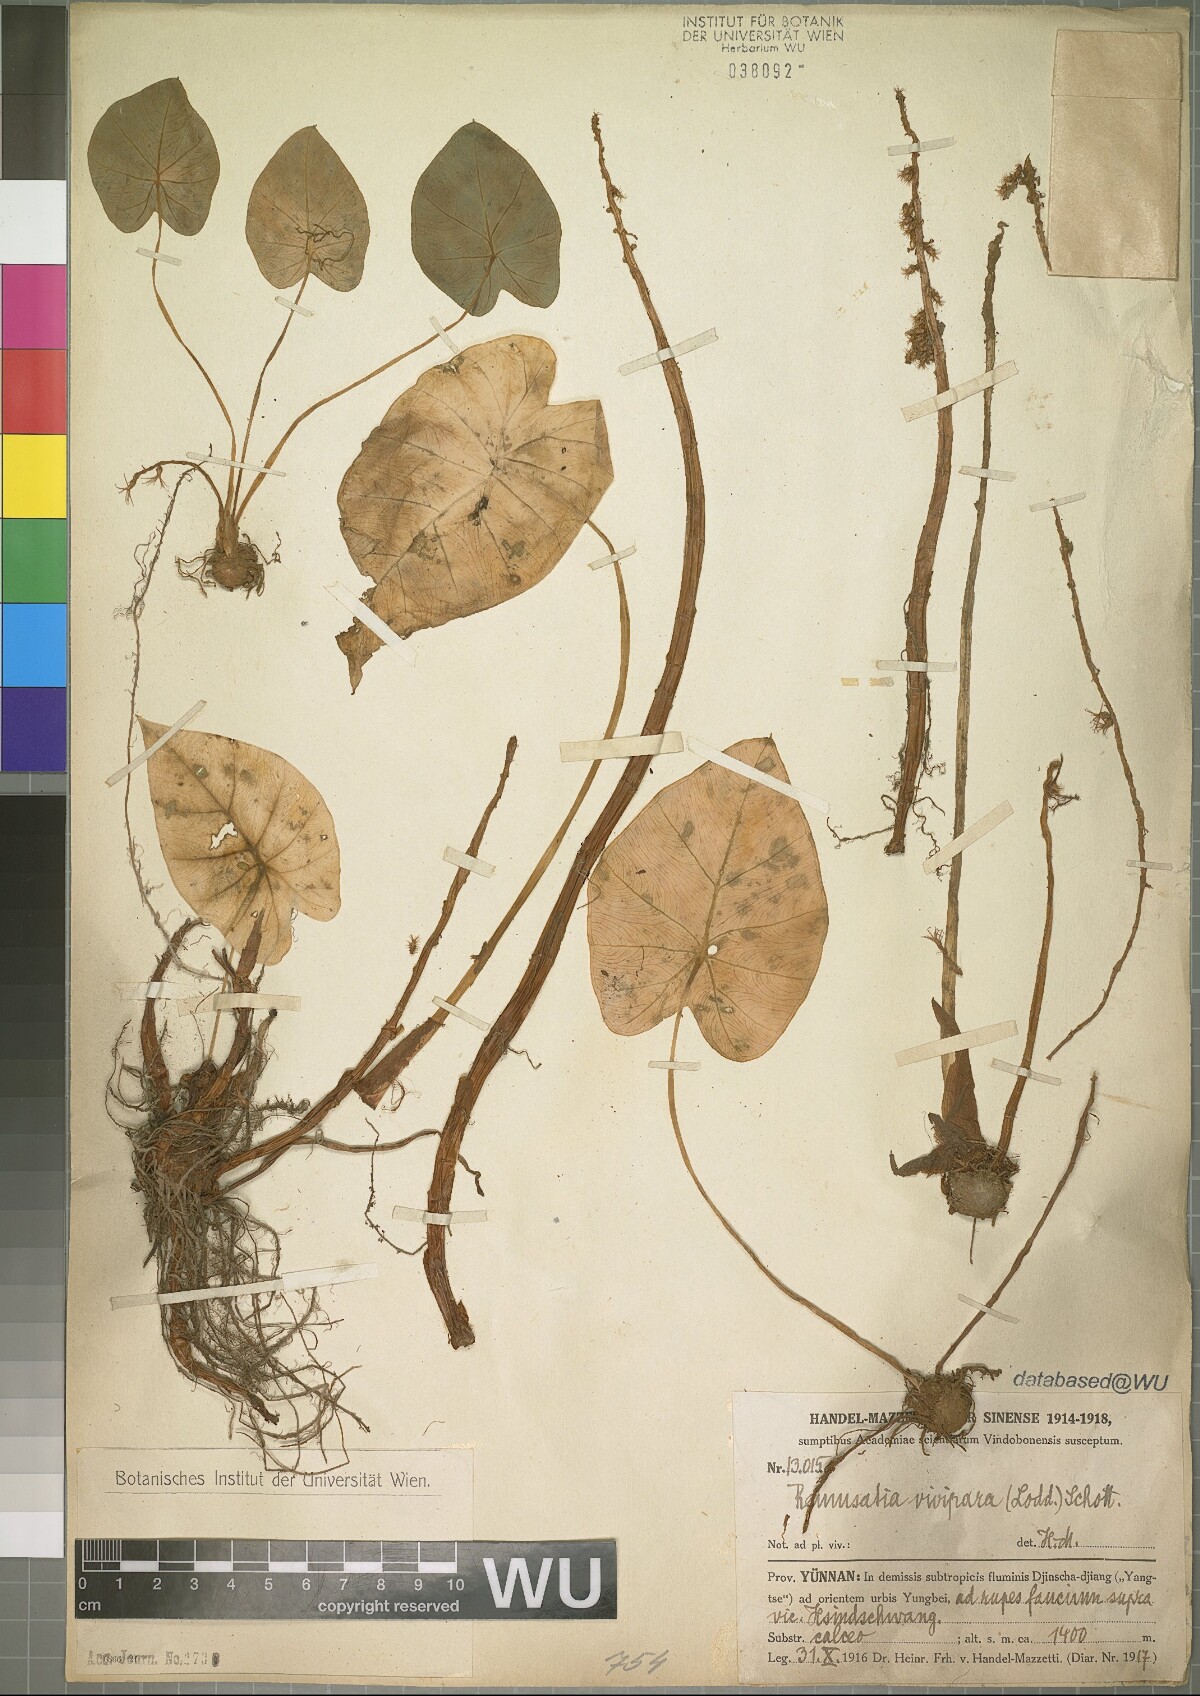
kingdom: Plantae
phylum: Tracheophyta
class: Liliopsida
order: Alismatales
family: Araceae
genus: Remusatia
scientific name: Remusatia vivipara
